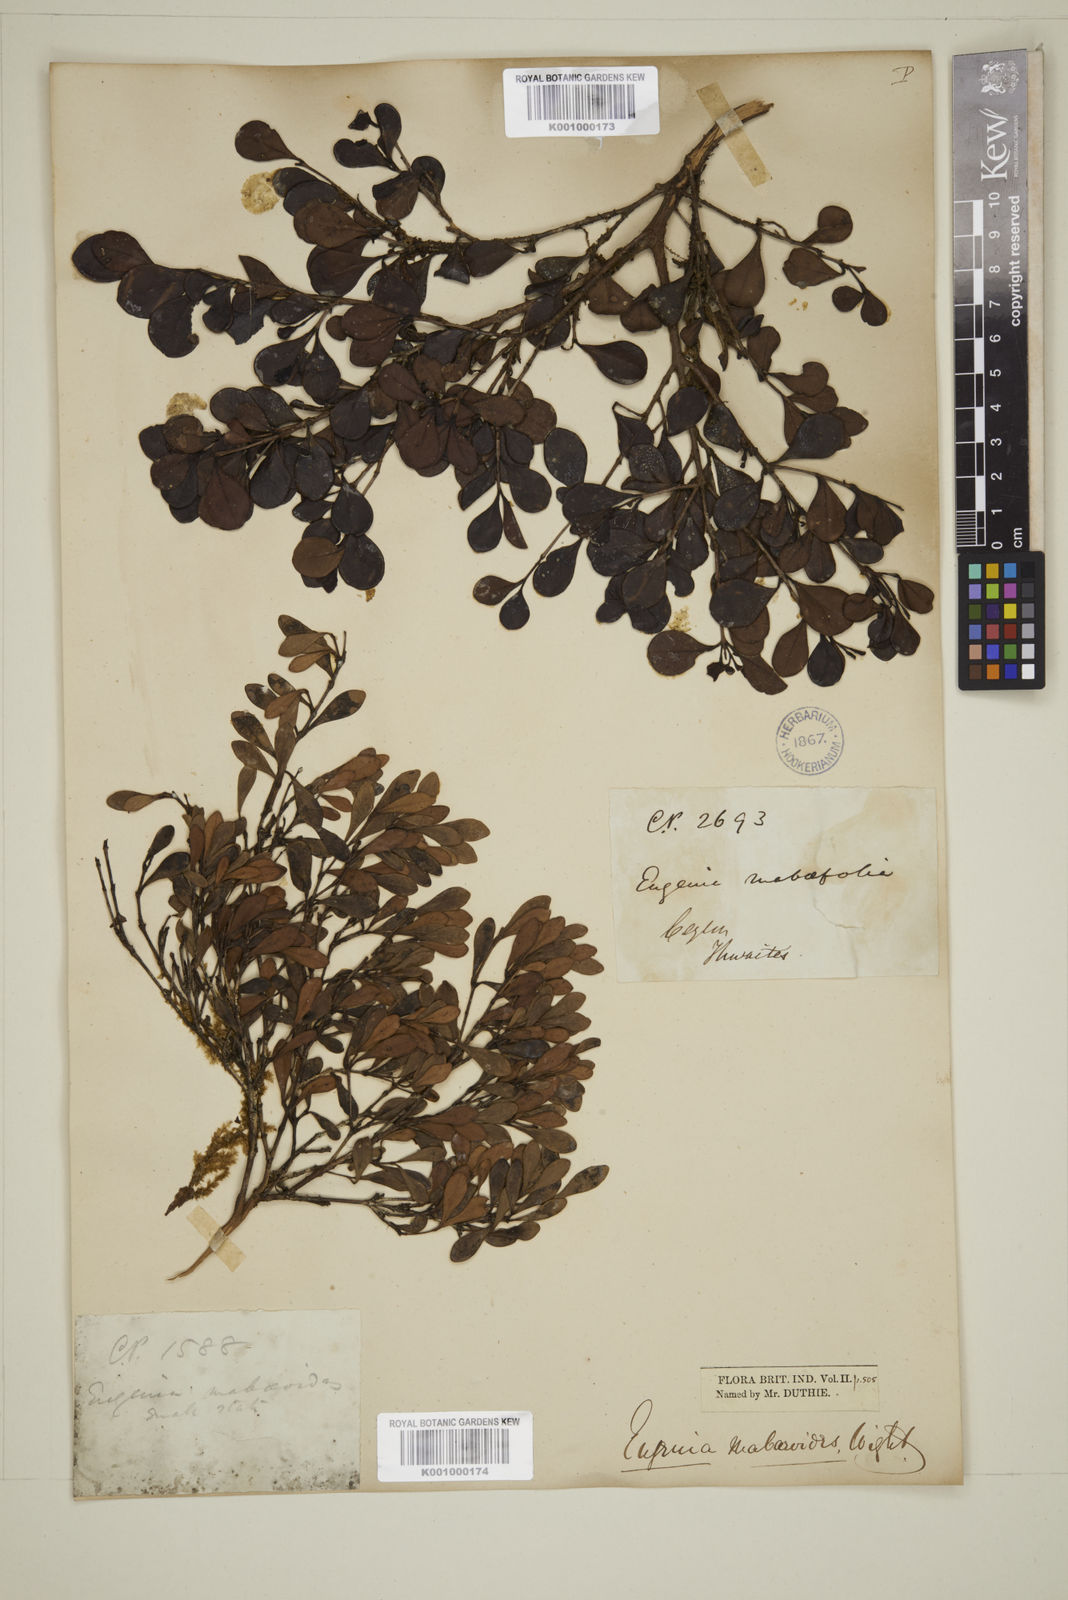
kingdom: Plantae
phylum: Tracheophyta
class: Magnoliopsida
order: Myrtales
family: Myrtaceae
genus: Eugenia
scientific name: Eugenia mabaeoides
